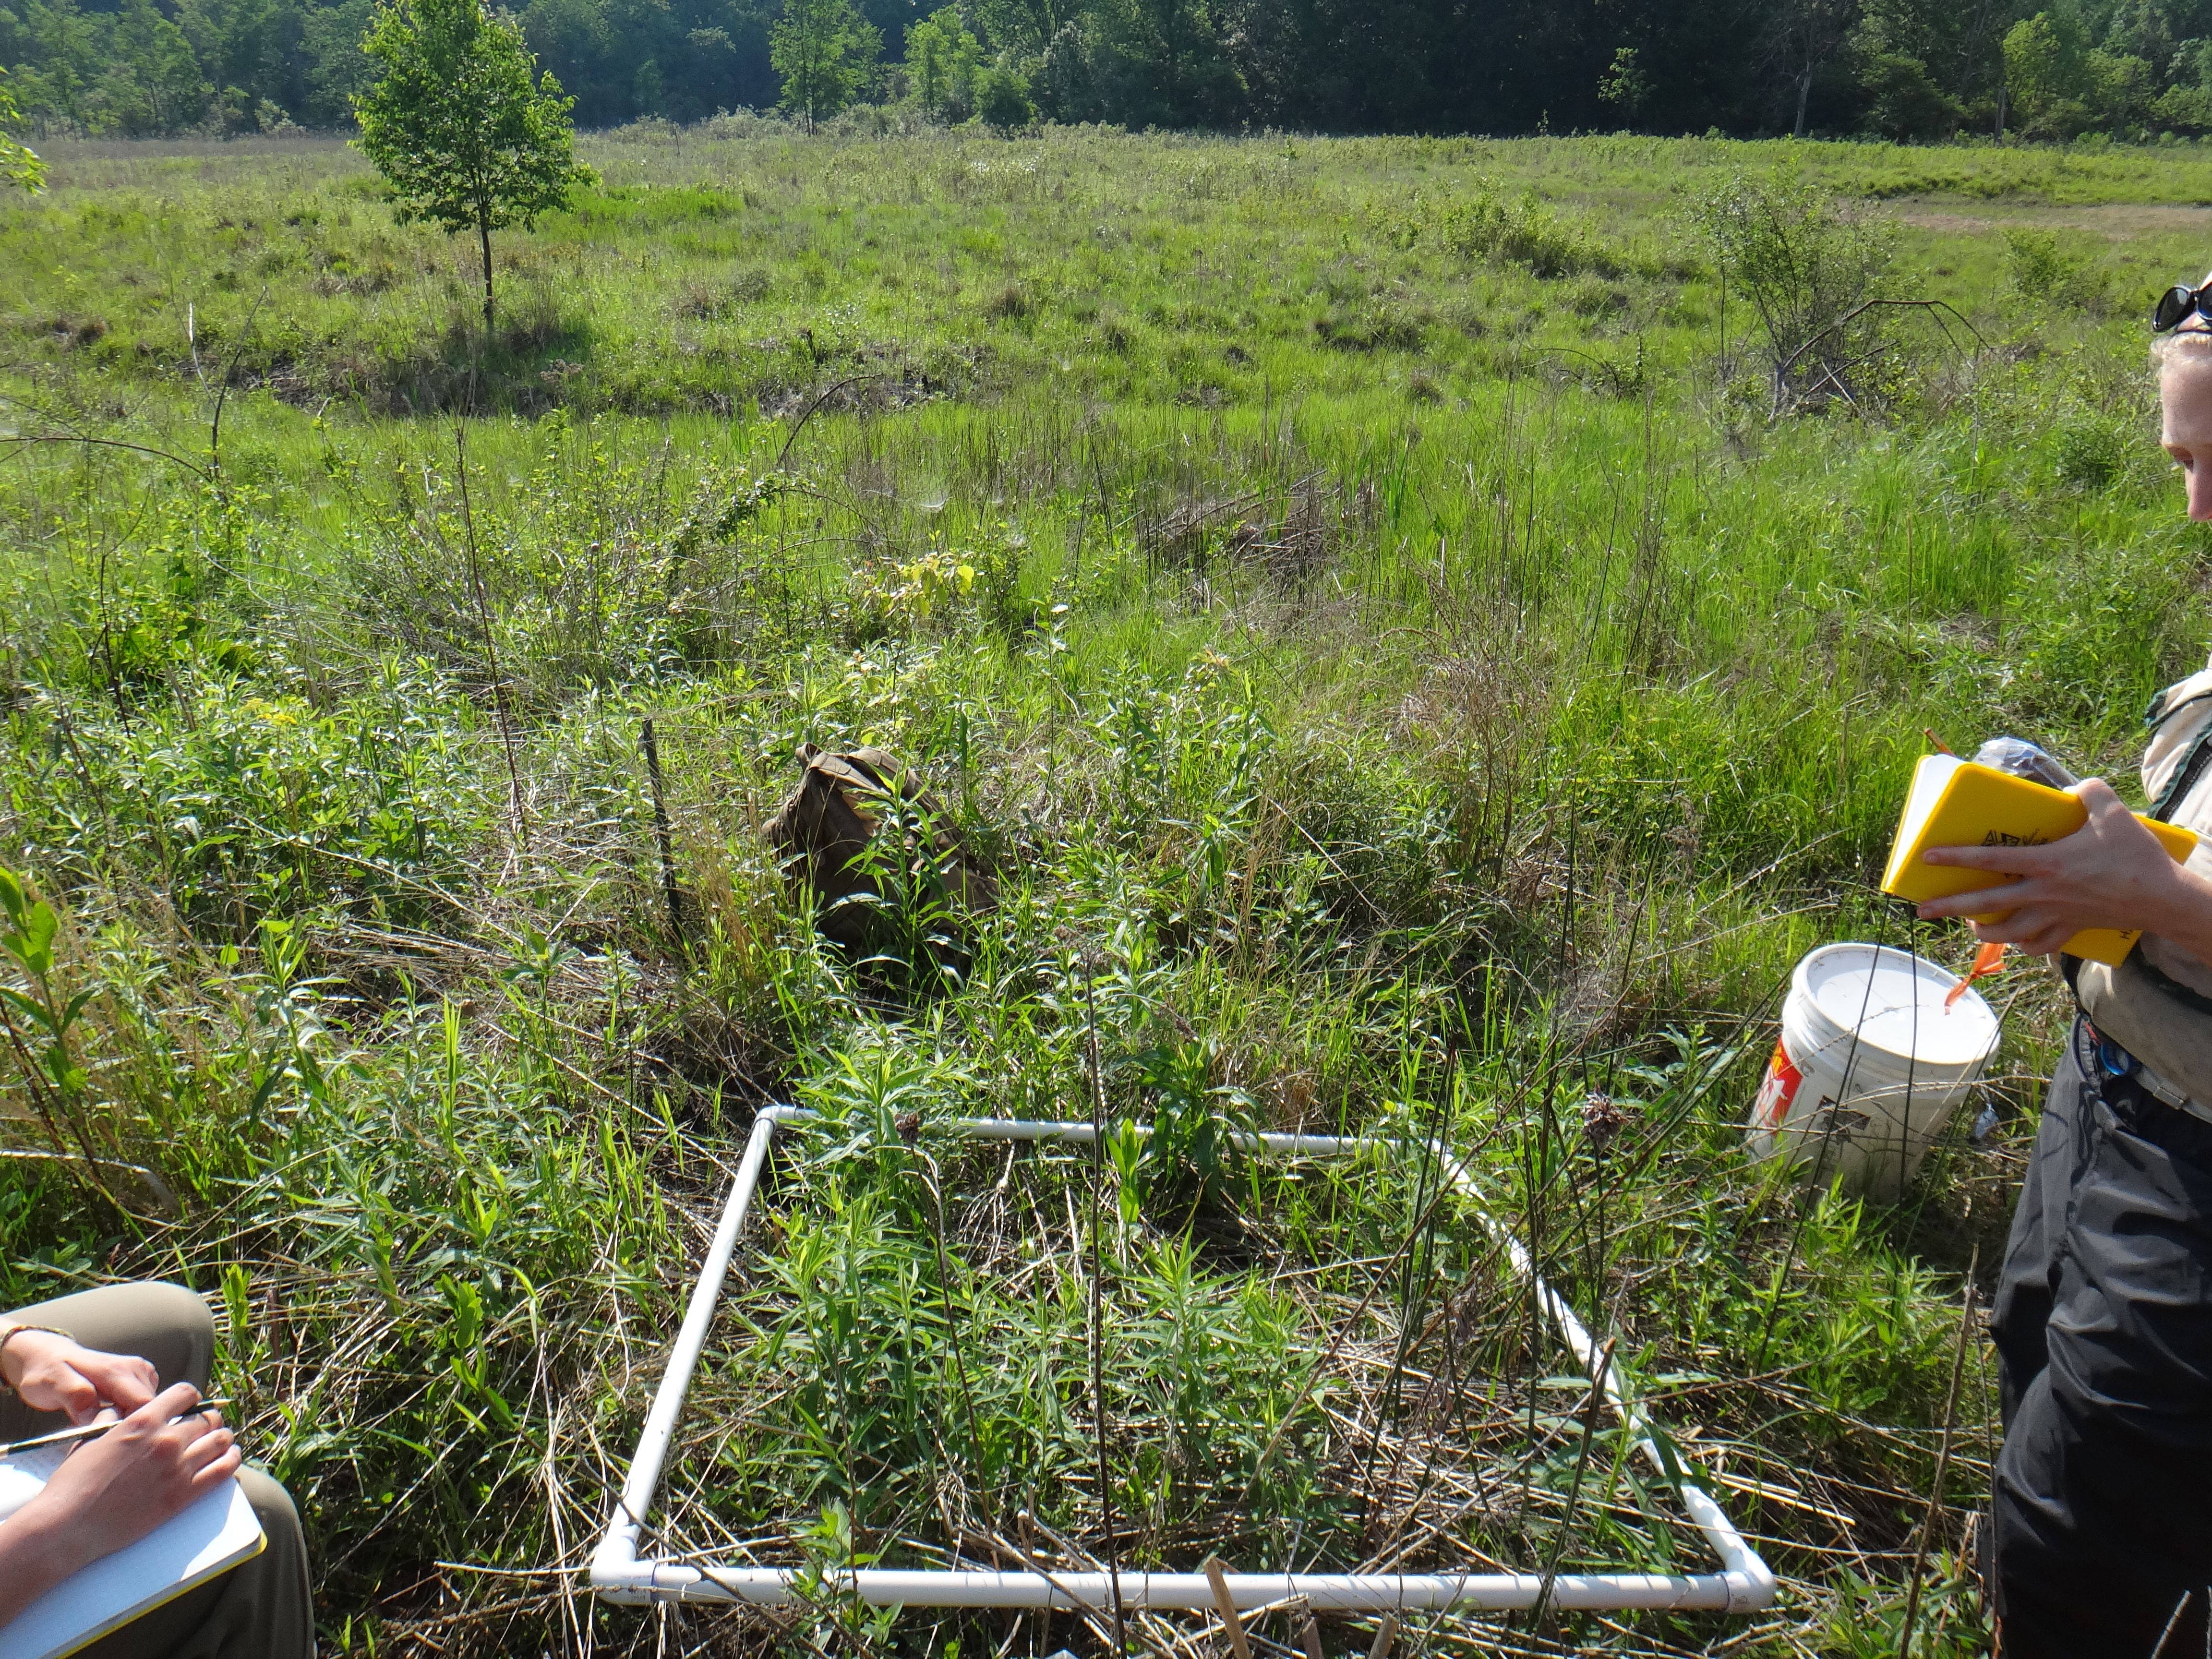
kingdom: Plantae
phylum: Tracheophyta
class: Magnoliopsida
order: Asterales
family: Asteraceae
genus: Solidago
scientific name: Solidago patula
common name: Rough-leaf goldenrod
